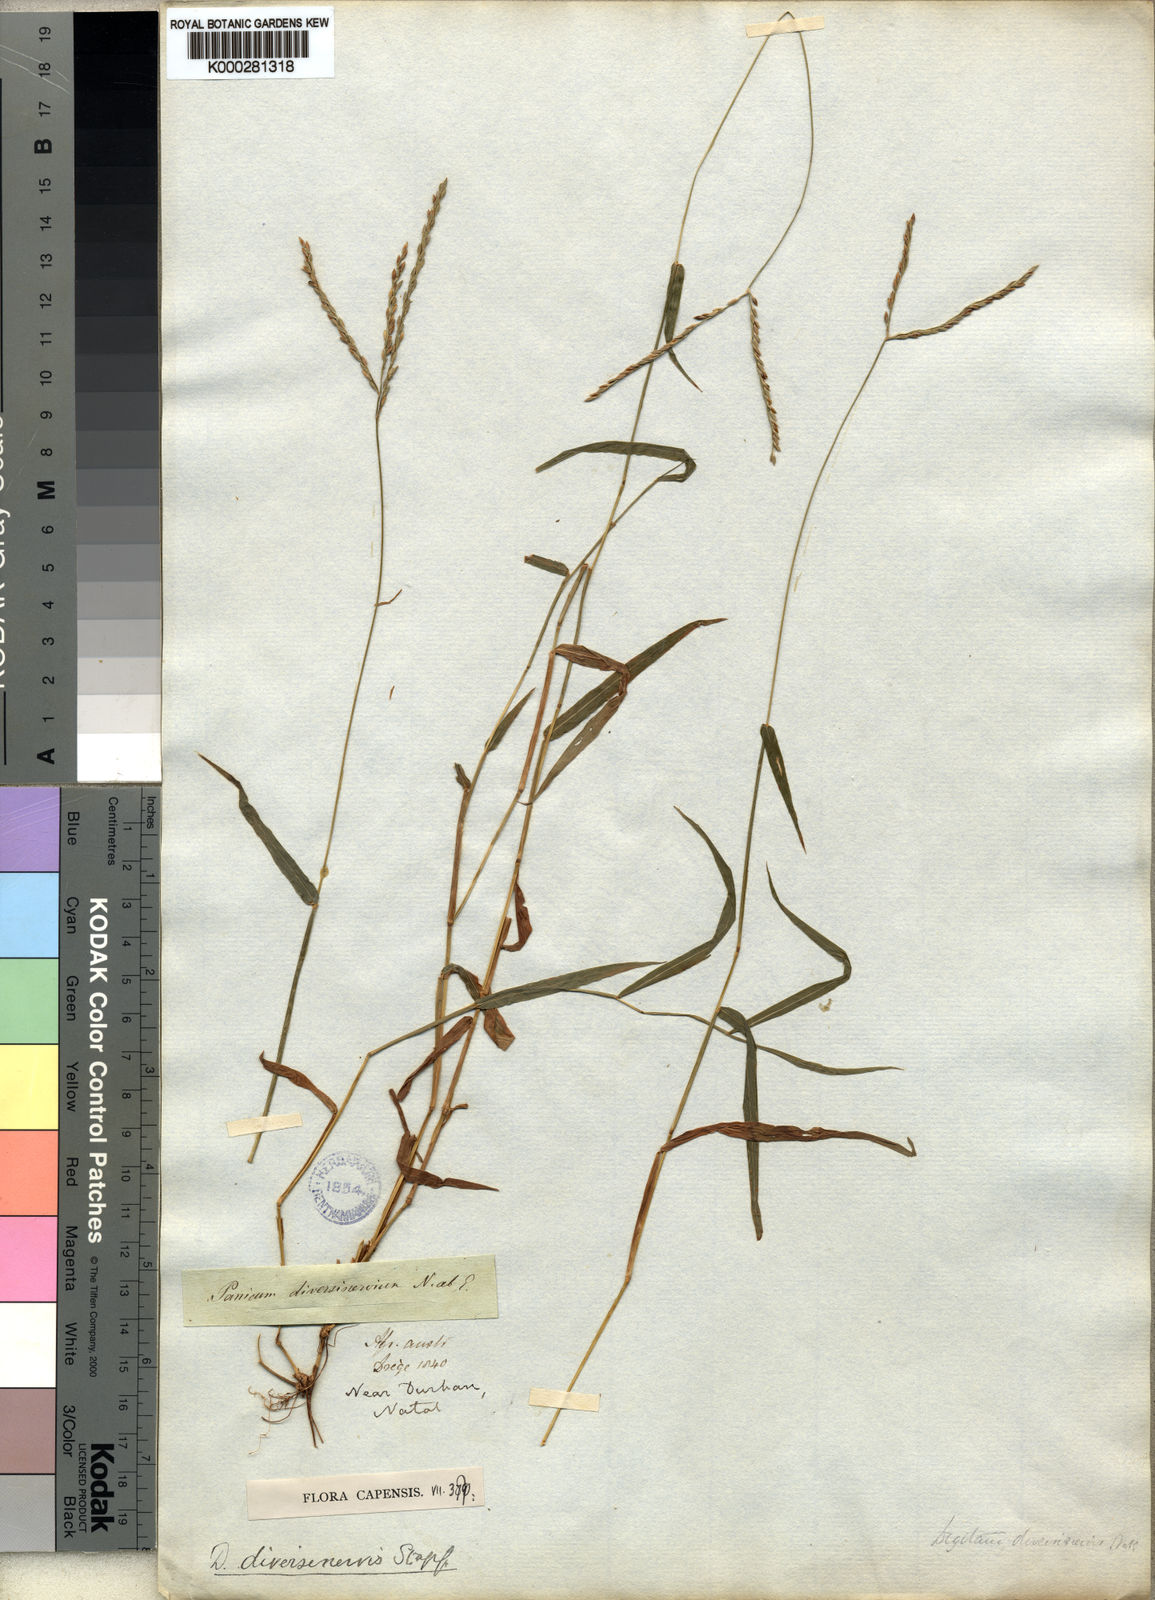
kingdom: Plantae
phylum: Tracheophyta
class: Liliopsida
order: Poales
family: Poaceae
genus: Digitaria
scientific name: Digitaria diversinervis
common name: Richmond finger grass
